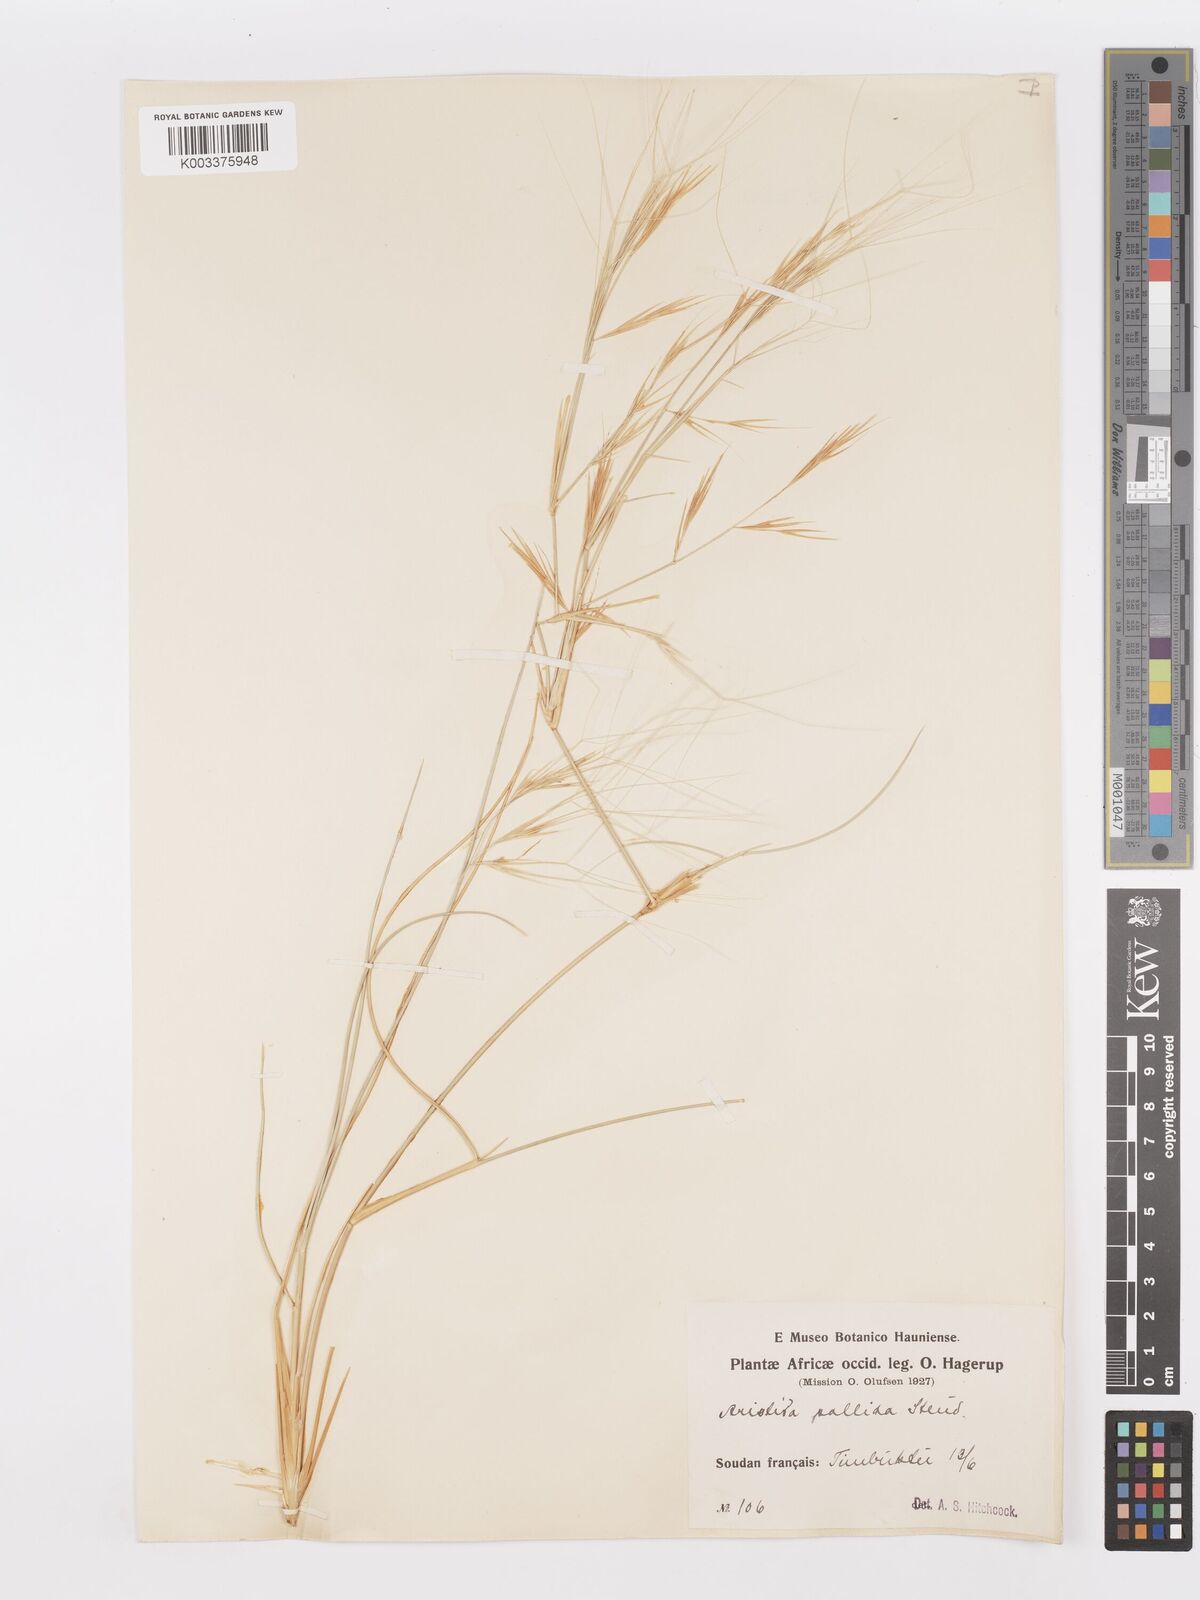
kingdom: Plantae
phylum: Tracheophyta
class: Liliopsida
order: Poales
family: Poaceae
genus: Aristida
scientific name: Aristida sieberiana
